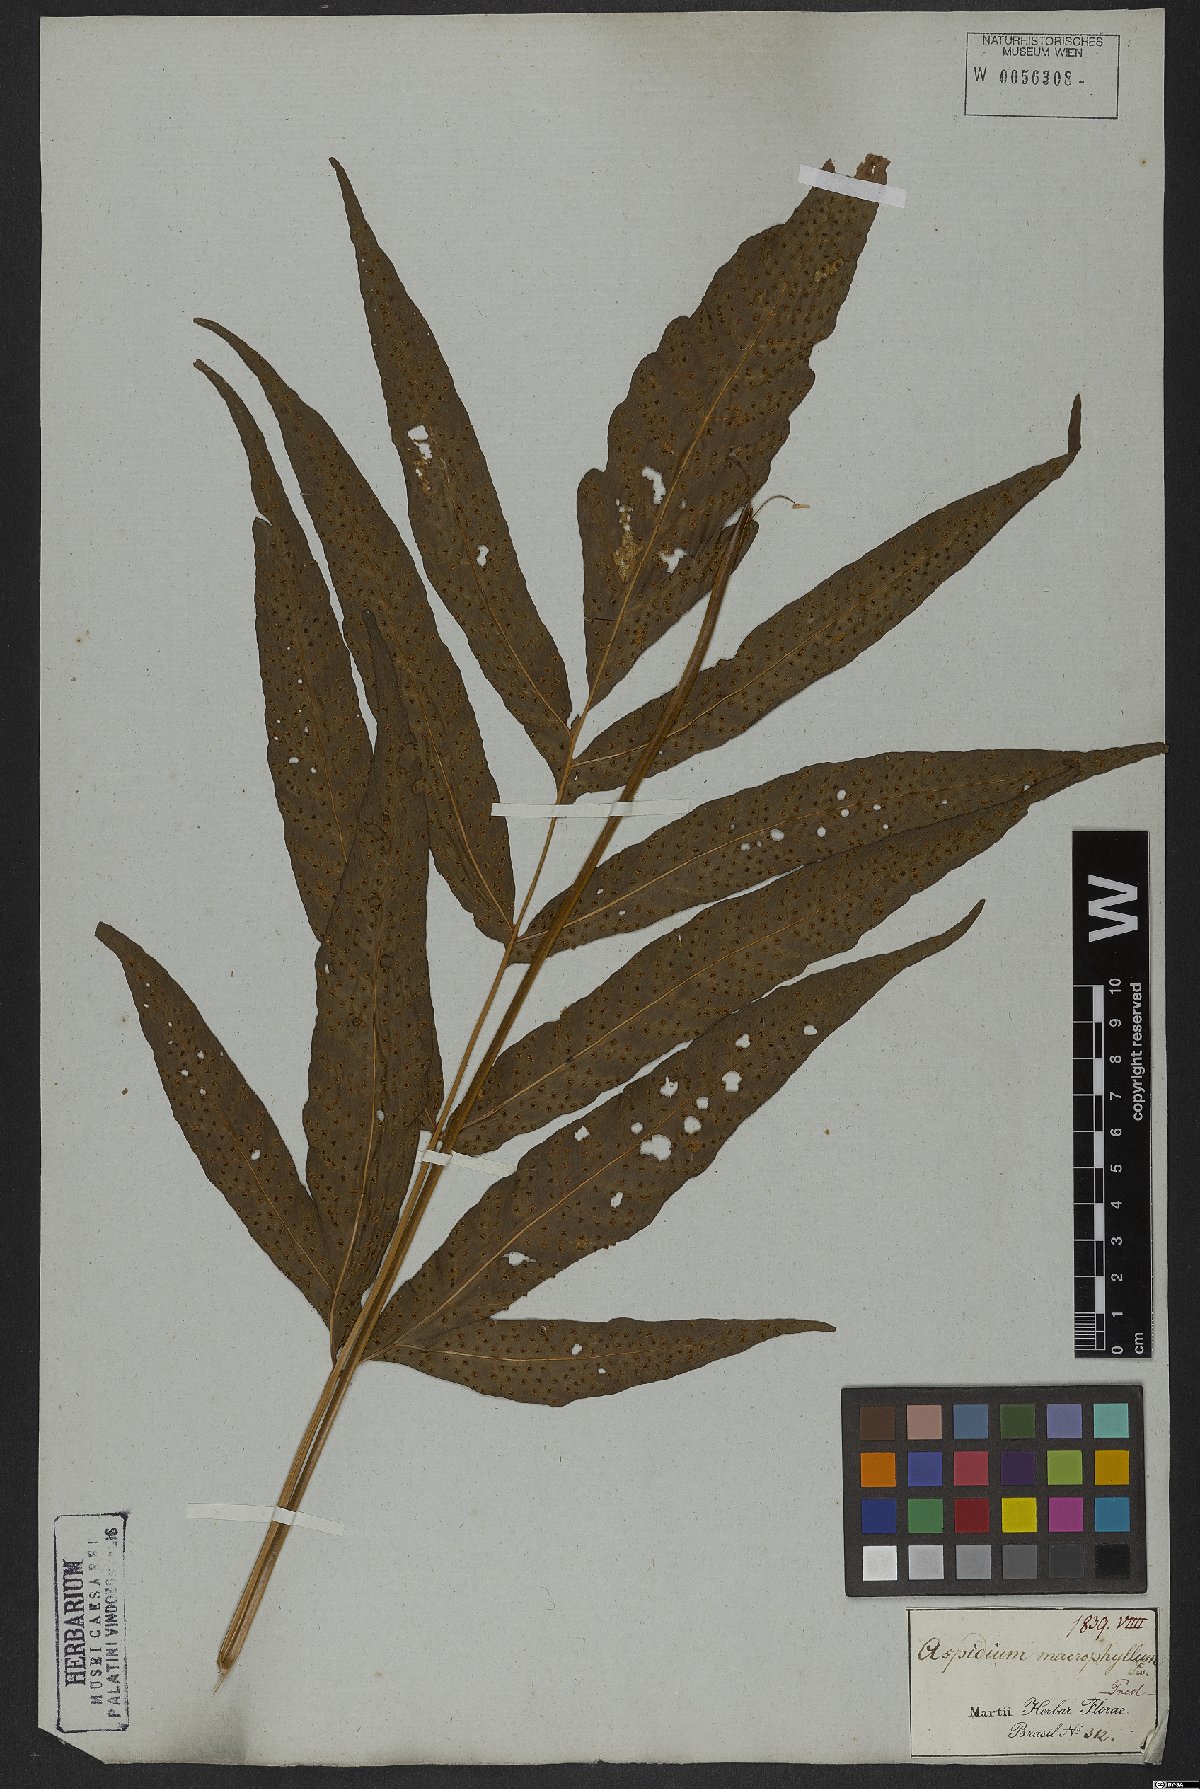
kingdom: Plantae
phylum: Tracheophyta
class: Polypodiopsida
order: Polypodiales
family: Tectariaceae
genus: Tectaria
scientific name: Tectaria incisa
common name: Incised halberd fern
